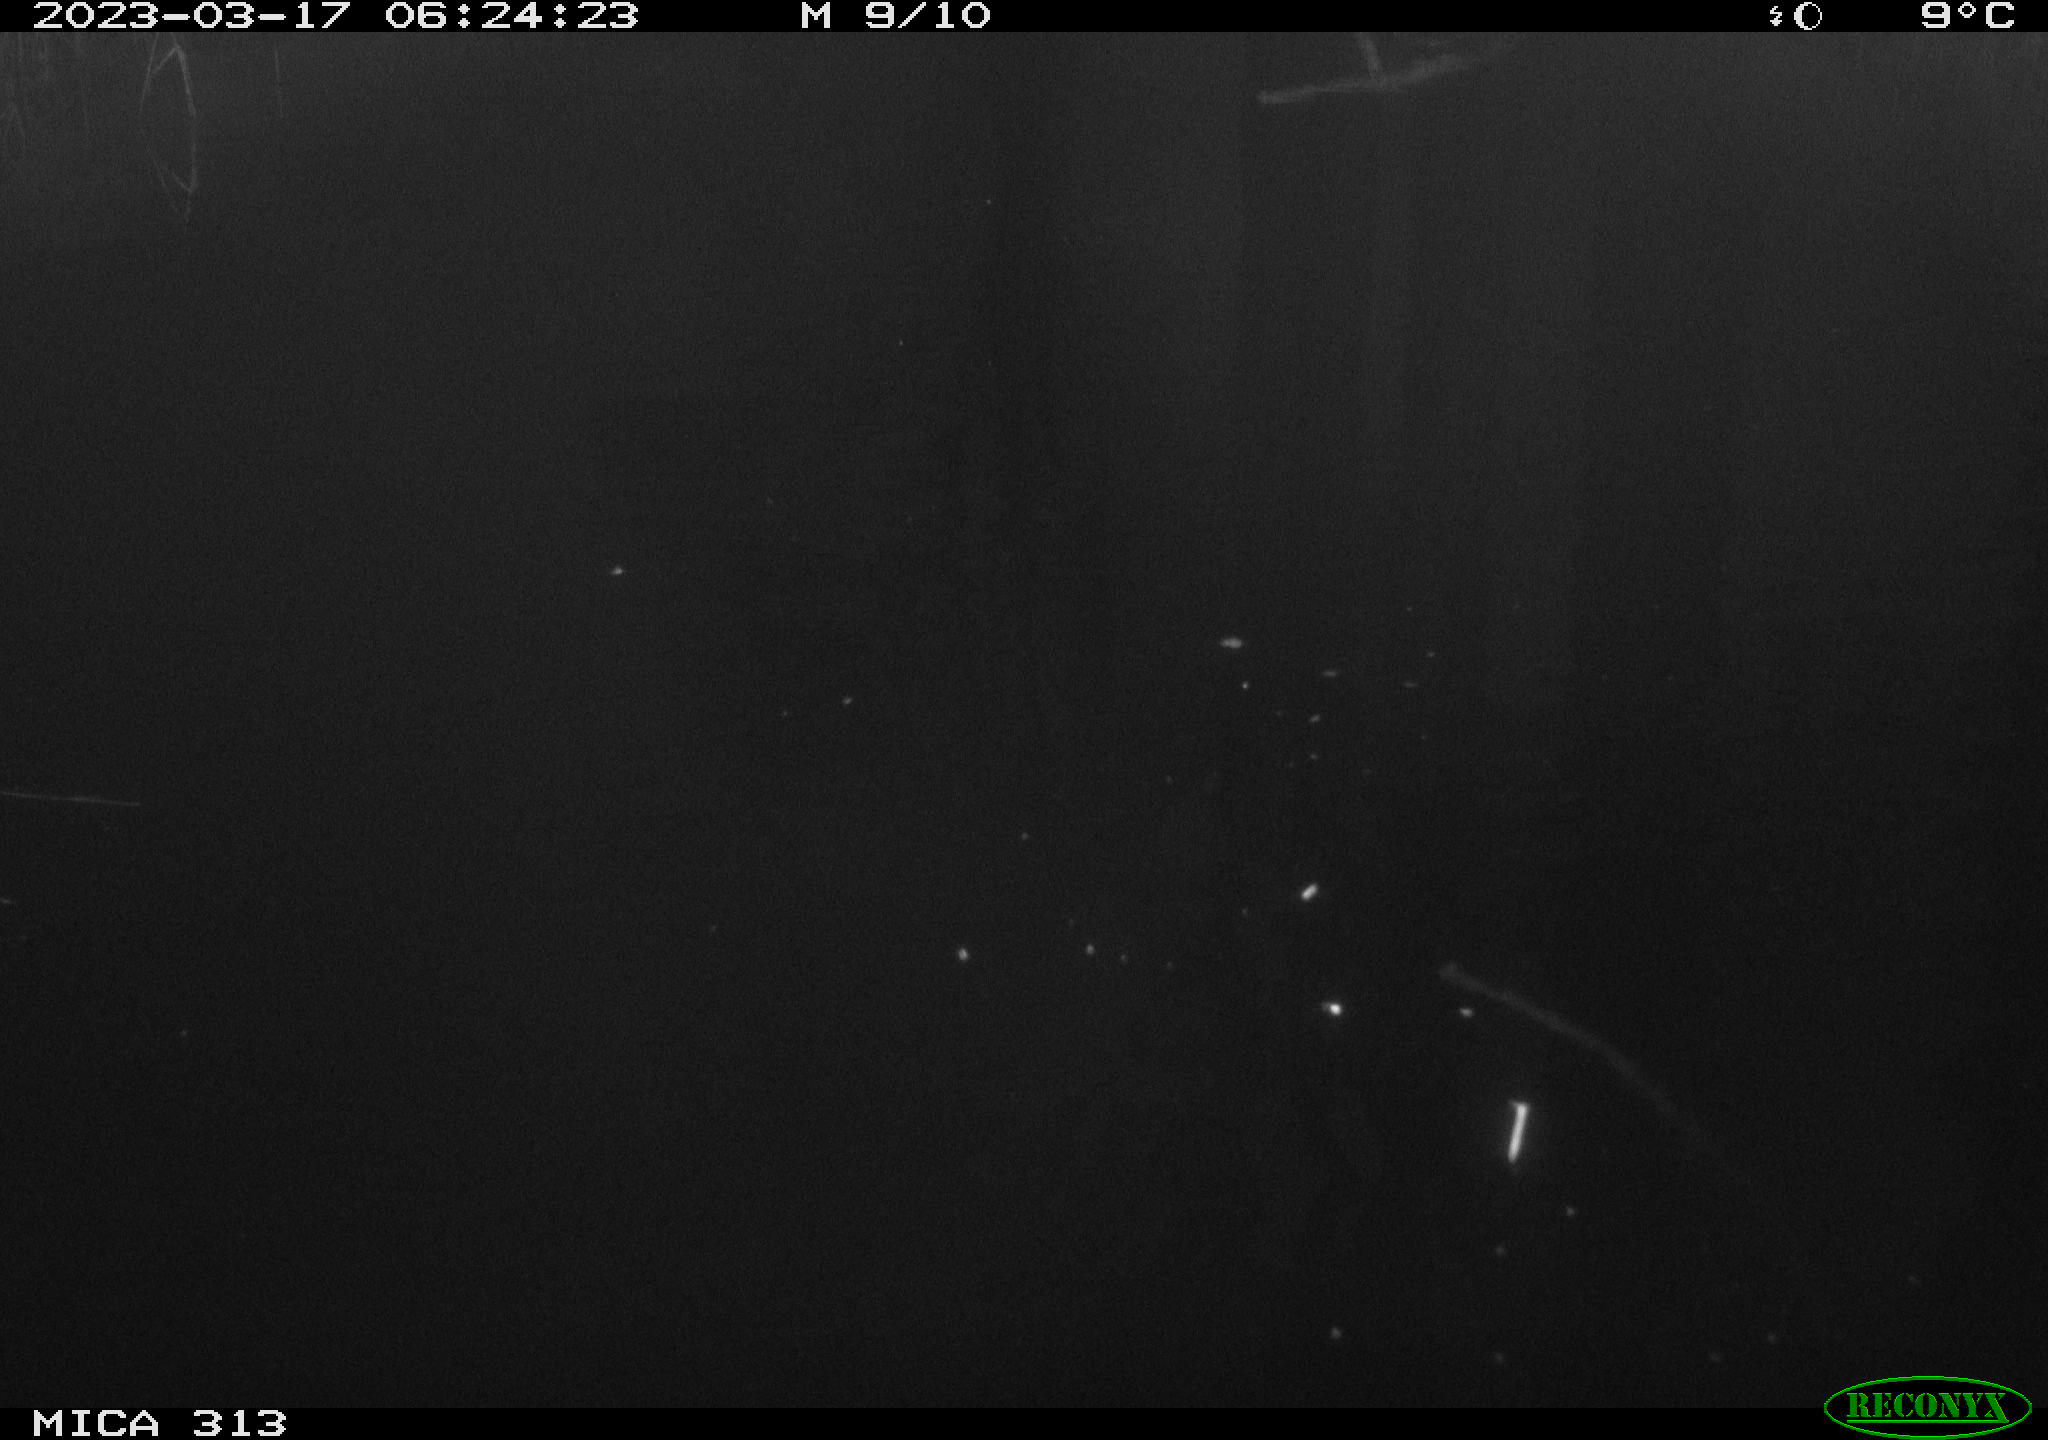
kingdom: Animalia
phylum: Chordata
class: Aves
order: Anseriformes
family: Anatidae
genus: Anas
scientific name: Anas
